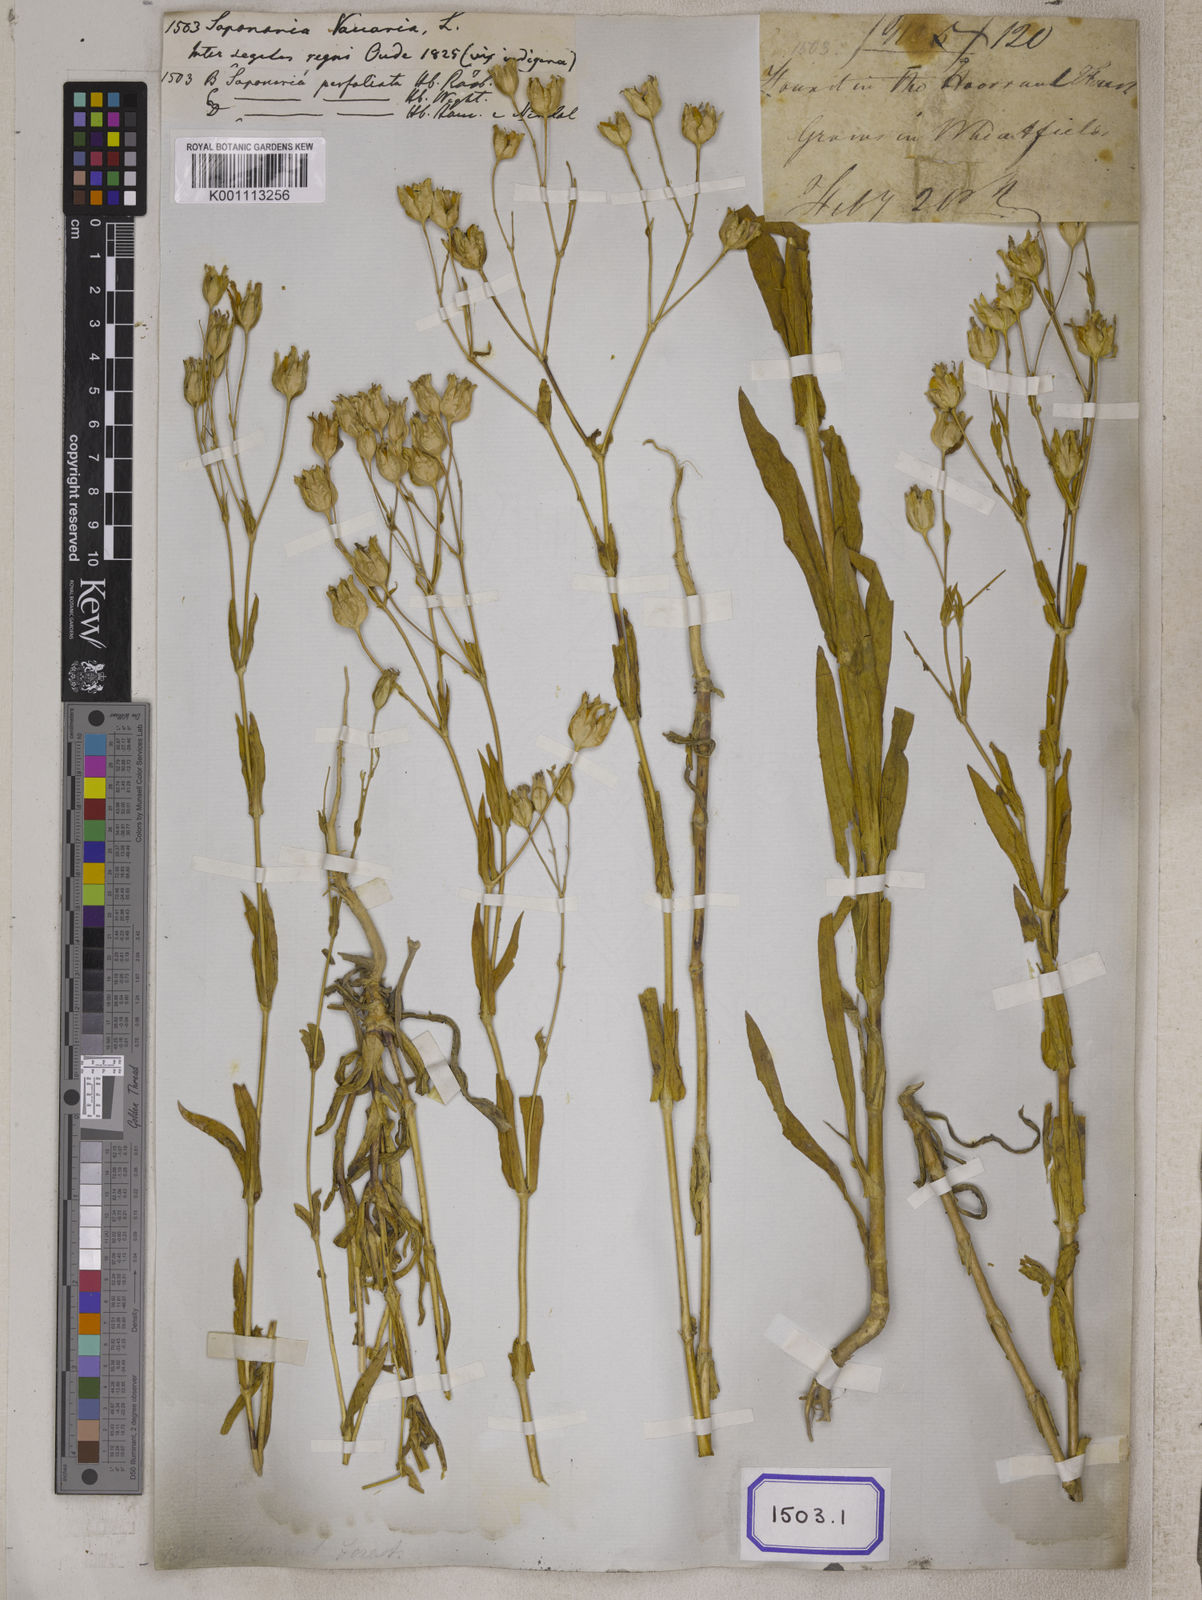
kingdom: Plantae
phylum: Tracheophyta
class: Magnoliopsida
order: Caryophyllales
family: Caryophyllaceae
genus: Gypsophila
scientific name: Gypsophila vaccaria
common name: Cow soapwort
